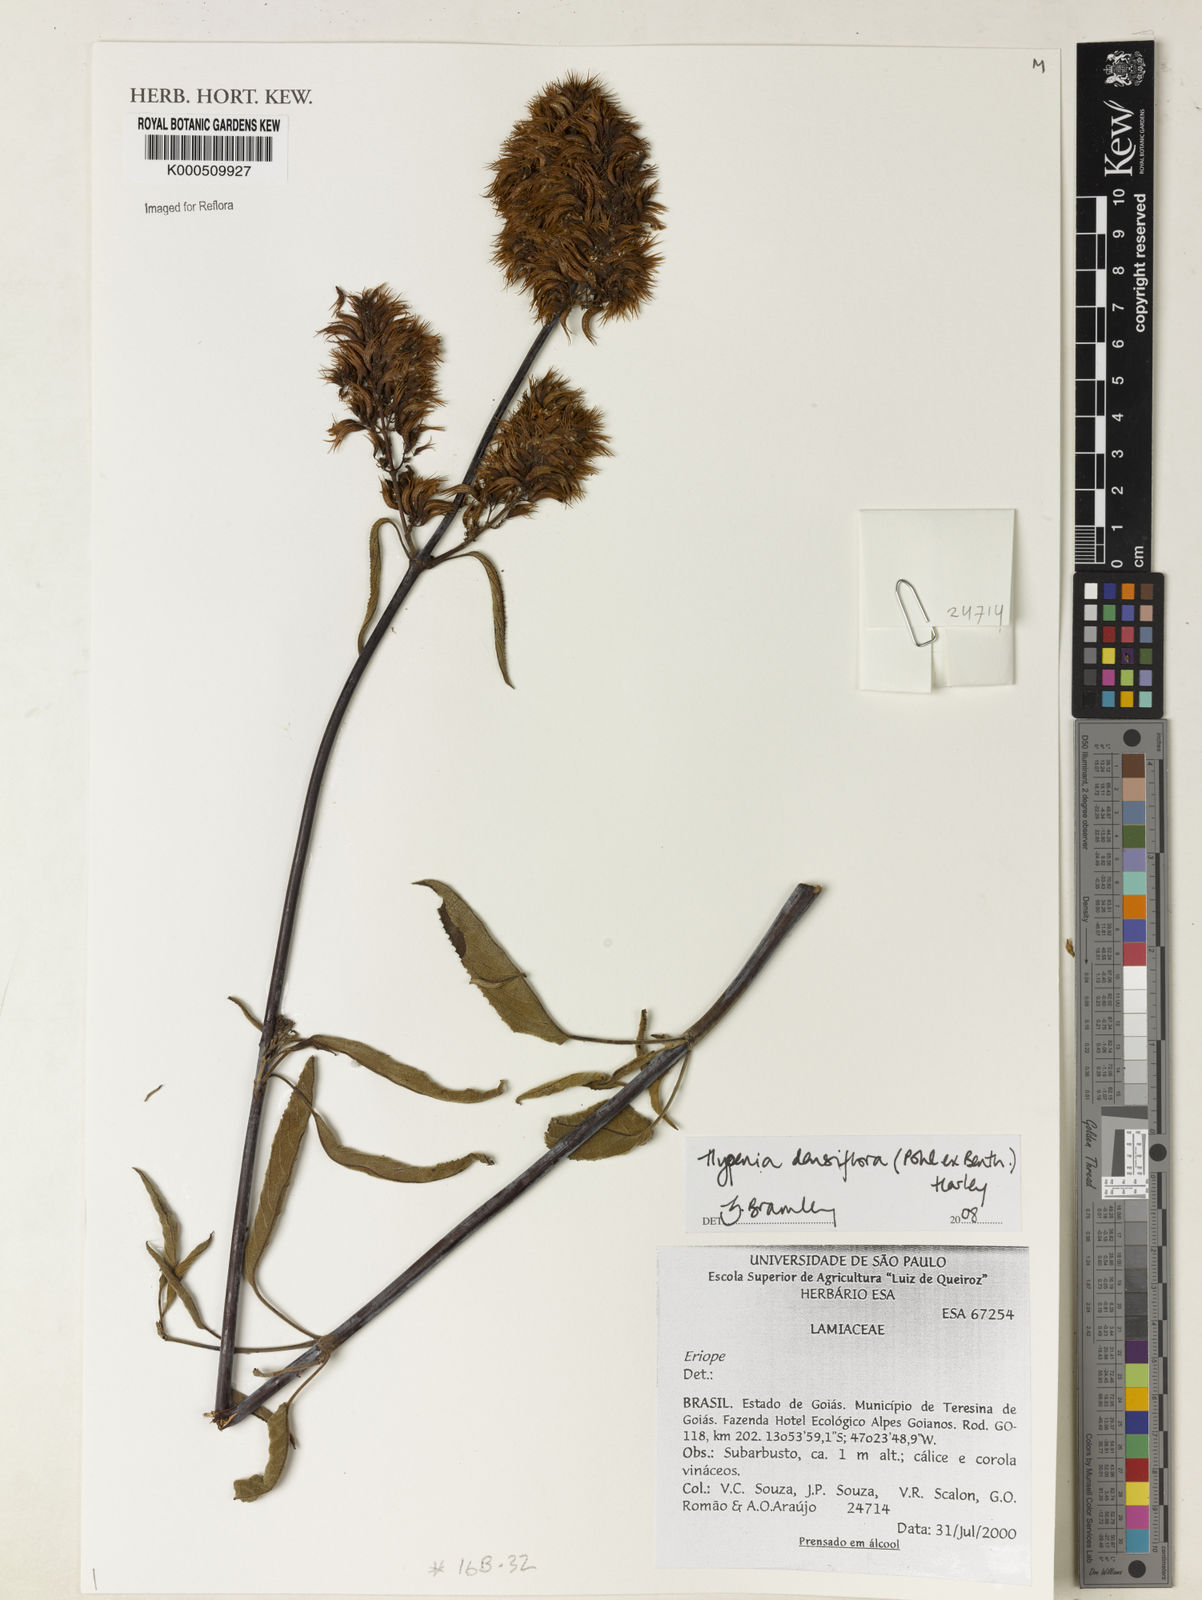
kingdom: Plantae
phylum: Tracheophyta
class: Magnoliopsida
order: Lamiales
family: Lamiaceae
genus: Hypenia
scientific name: Hypenia densiflora
